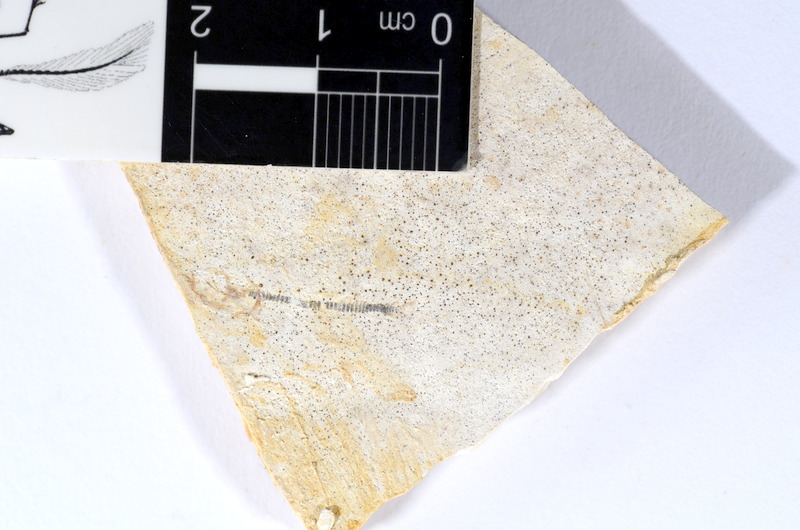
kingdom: Animalia
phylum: Chordata
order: Salmoniformes
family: Orthogonikleithridae
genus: Orthogonikleithrus
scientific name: Orthogonikleithrus hoelli
